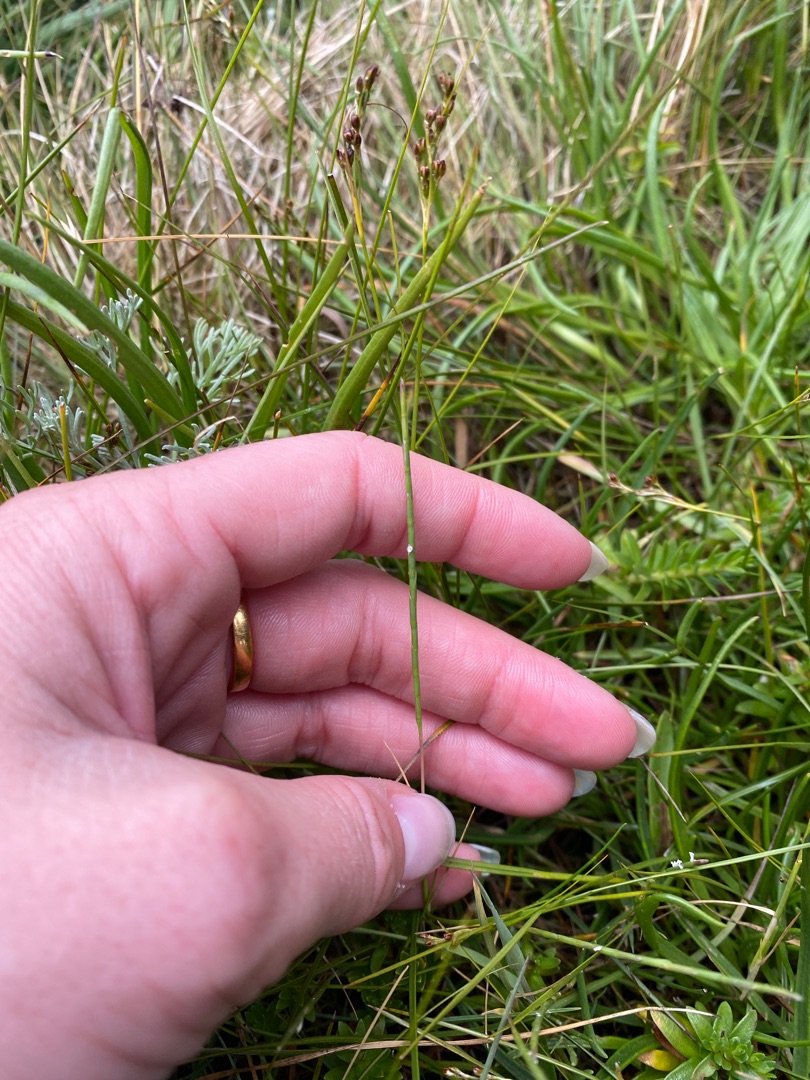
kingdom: Plantae
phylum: Tracheophyta
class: Liliopsida
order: Poales
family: Poaceae
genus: Parapholis
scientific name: Parapholis strigosa
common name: Spidshale
